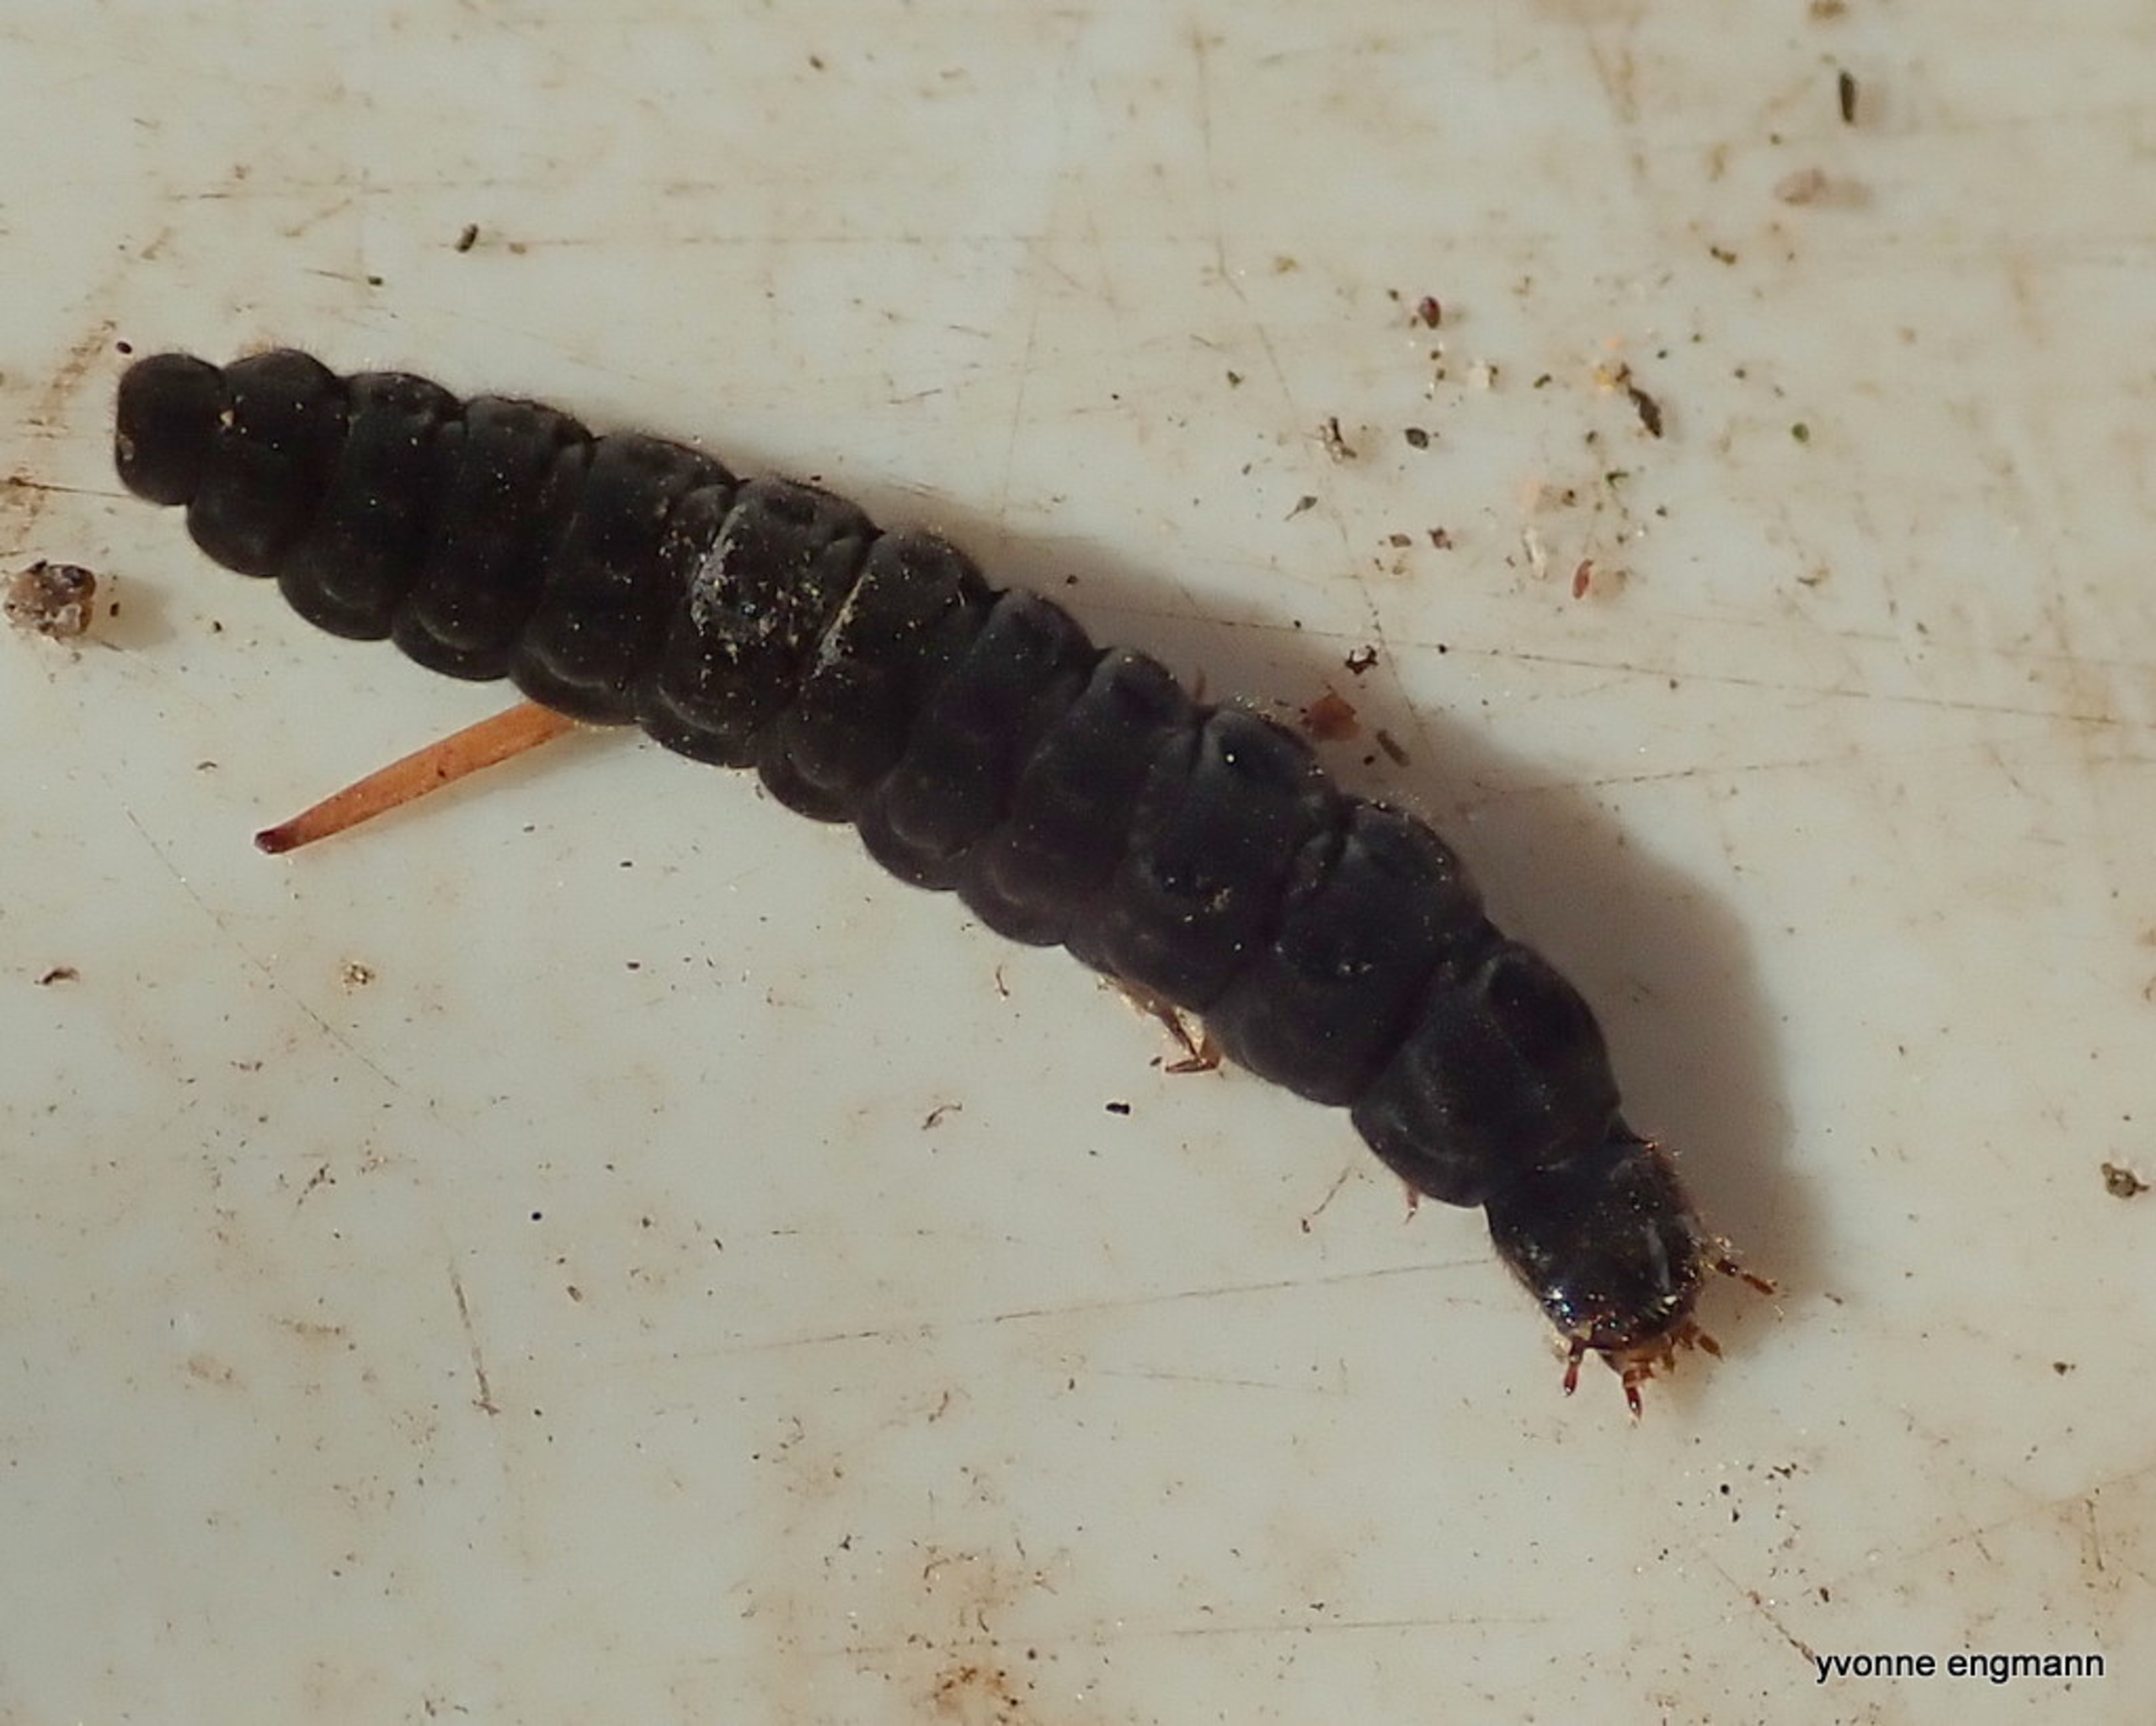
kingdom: Animalia
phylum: Arthropoda
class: Insecta
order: Coleoptera
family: Cantharidae
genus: Cantharis
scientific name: Cantharis
